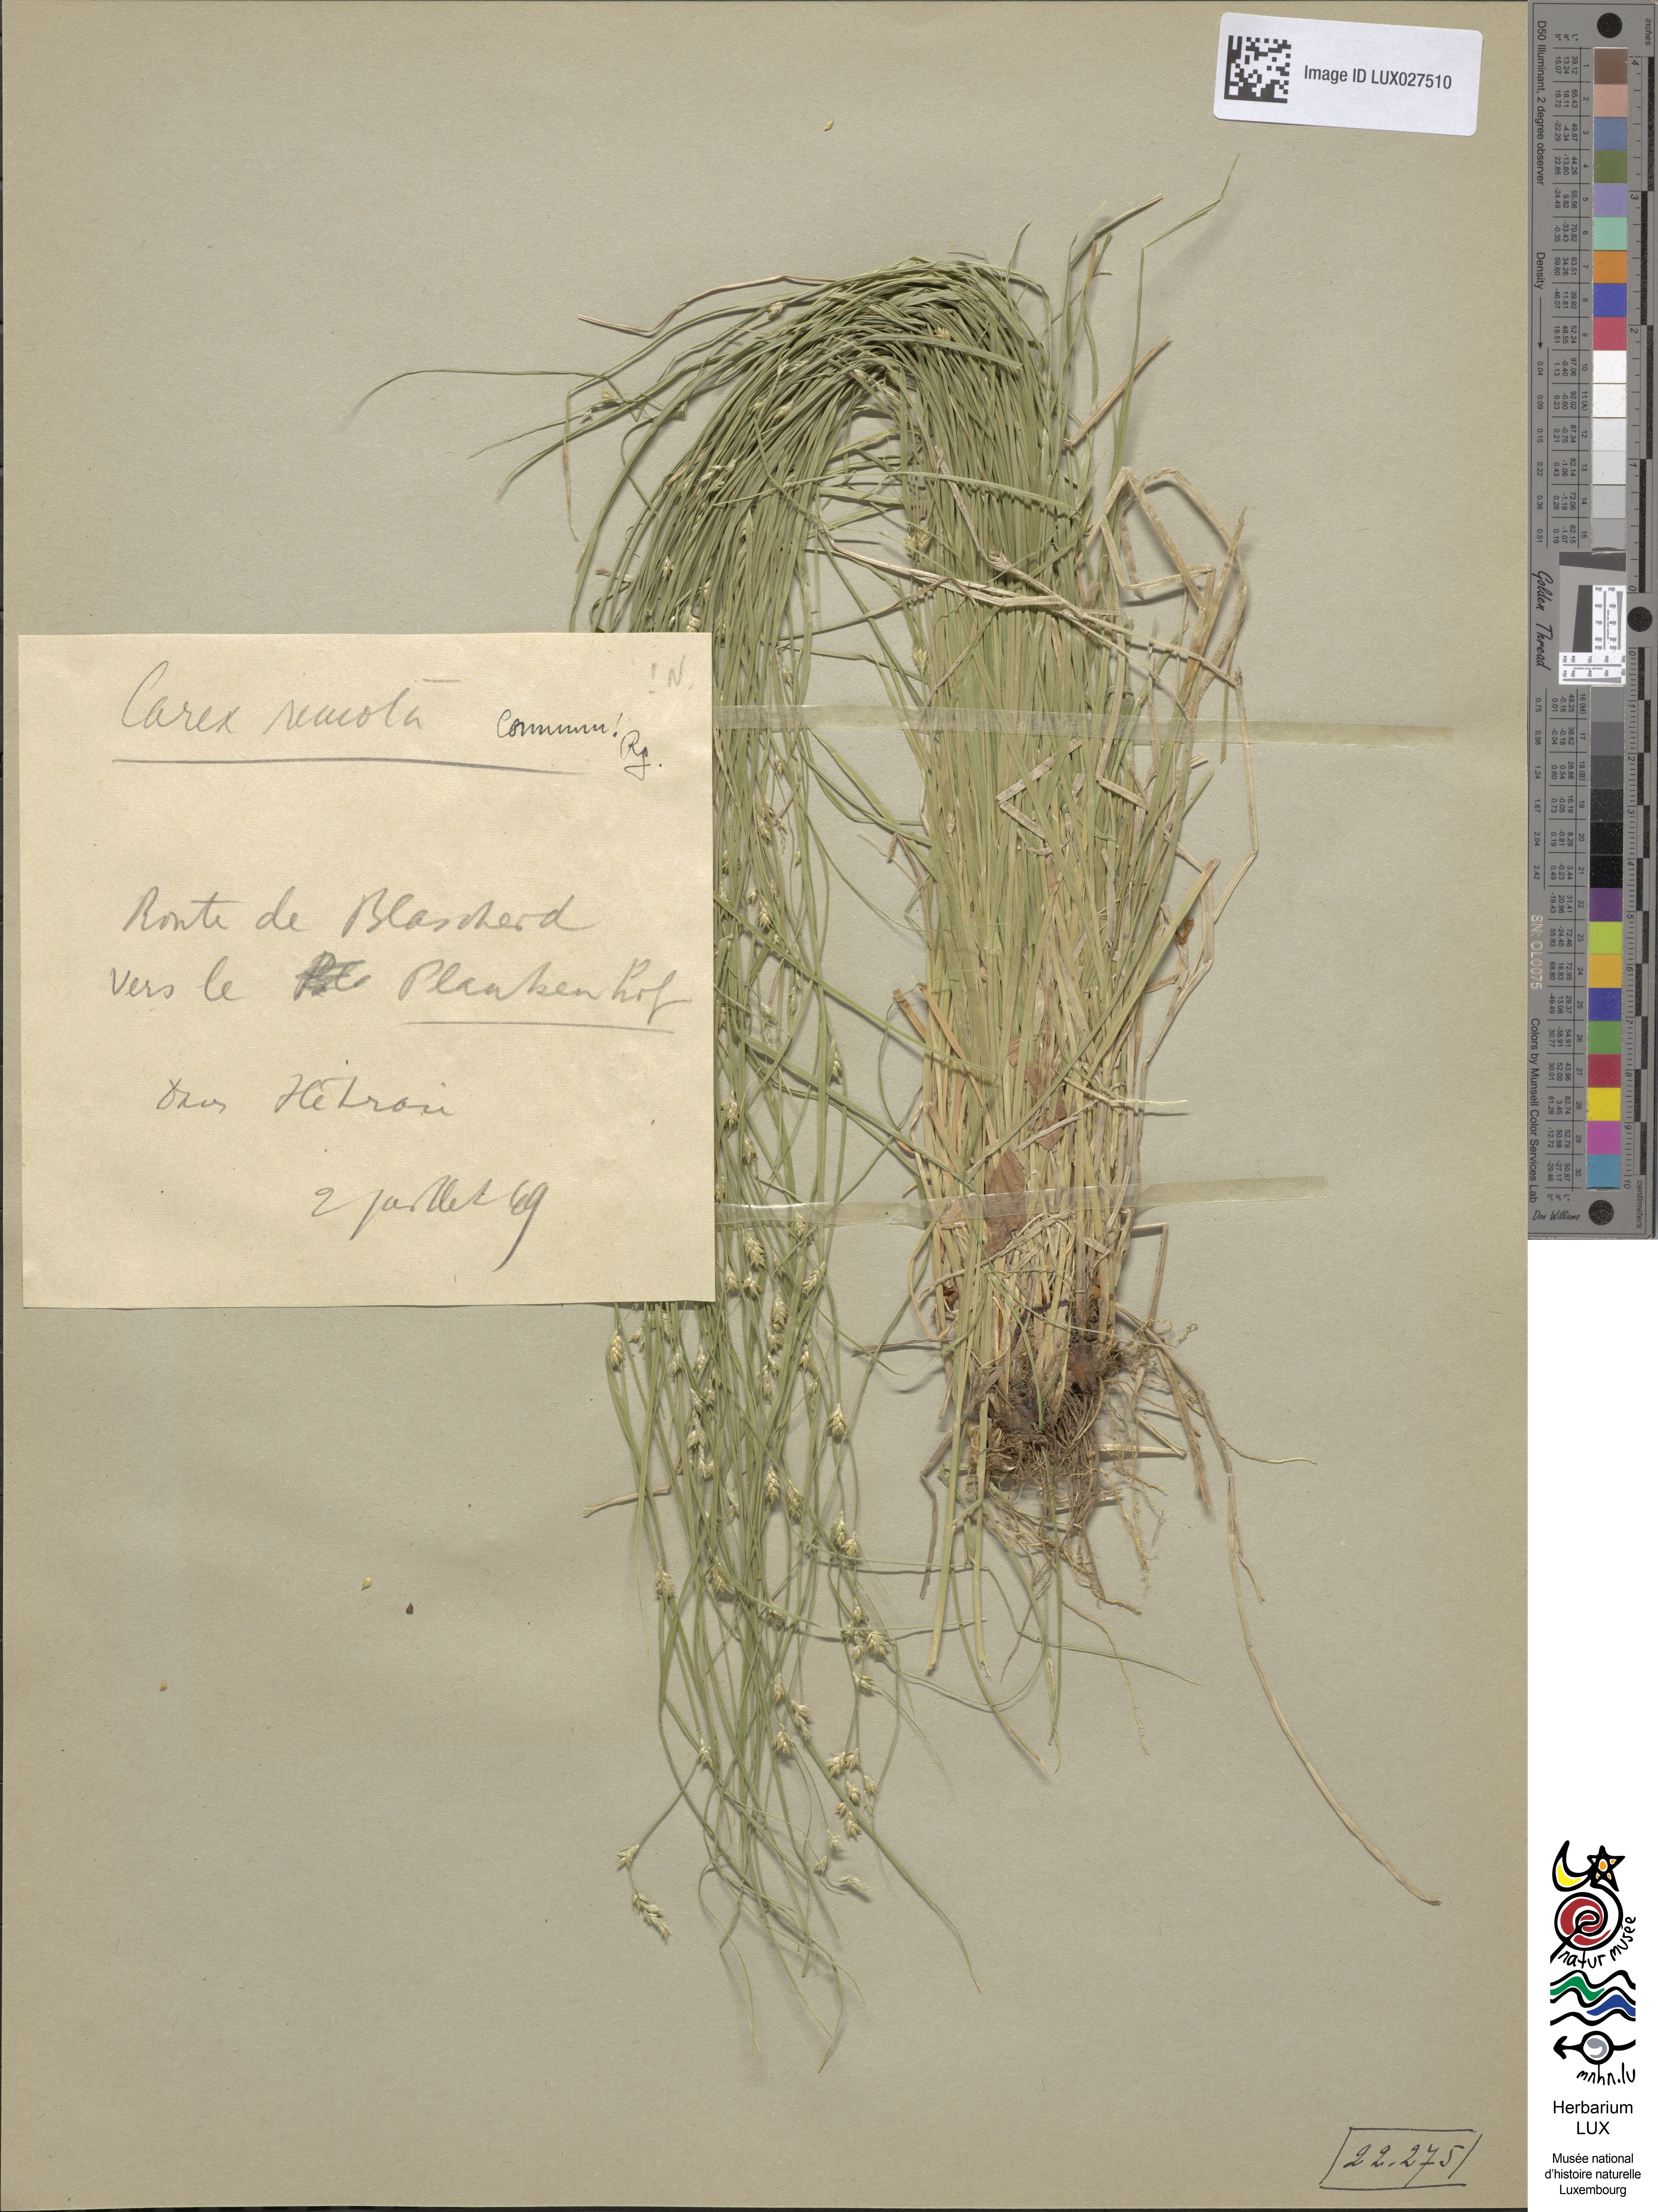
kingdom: Plantae
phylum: Tracheophyta
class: Liliopsida
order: Poales
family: Cyperaceae
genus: Carex
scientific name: Carex remota
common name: Remote sedge
